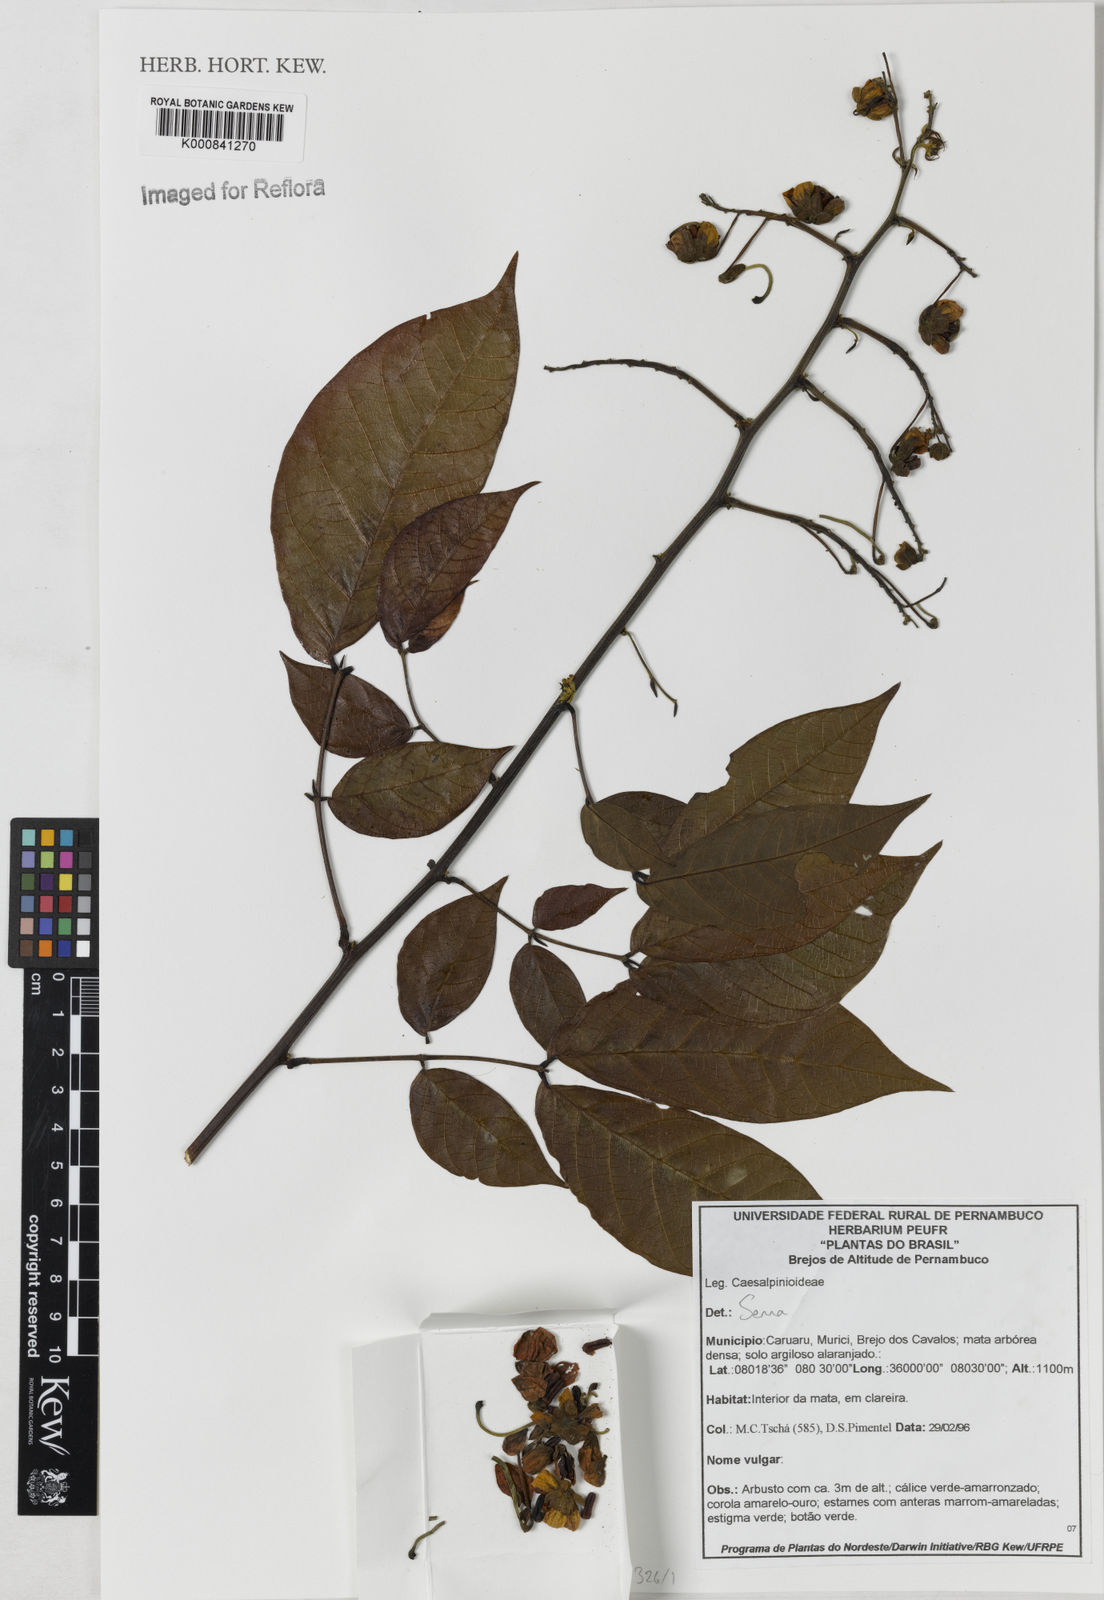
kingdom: Plantae
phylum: Tracheophyta
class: Magnoliopsida
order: Fabales
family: Fabaceae
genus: Senna
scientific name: Senna quinquangulata
